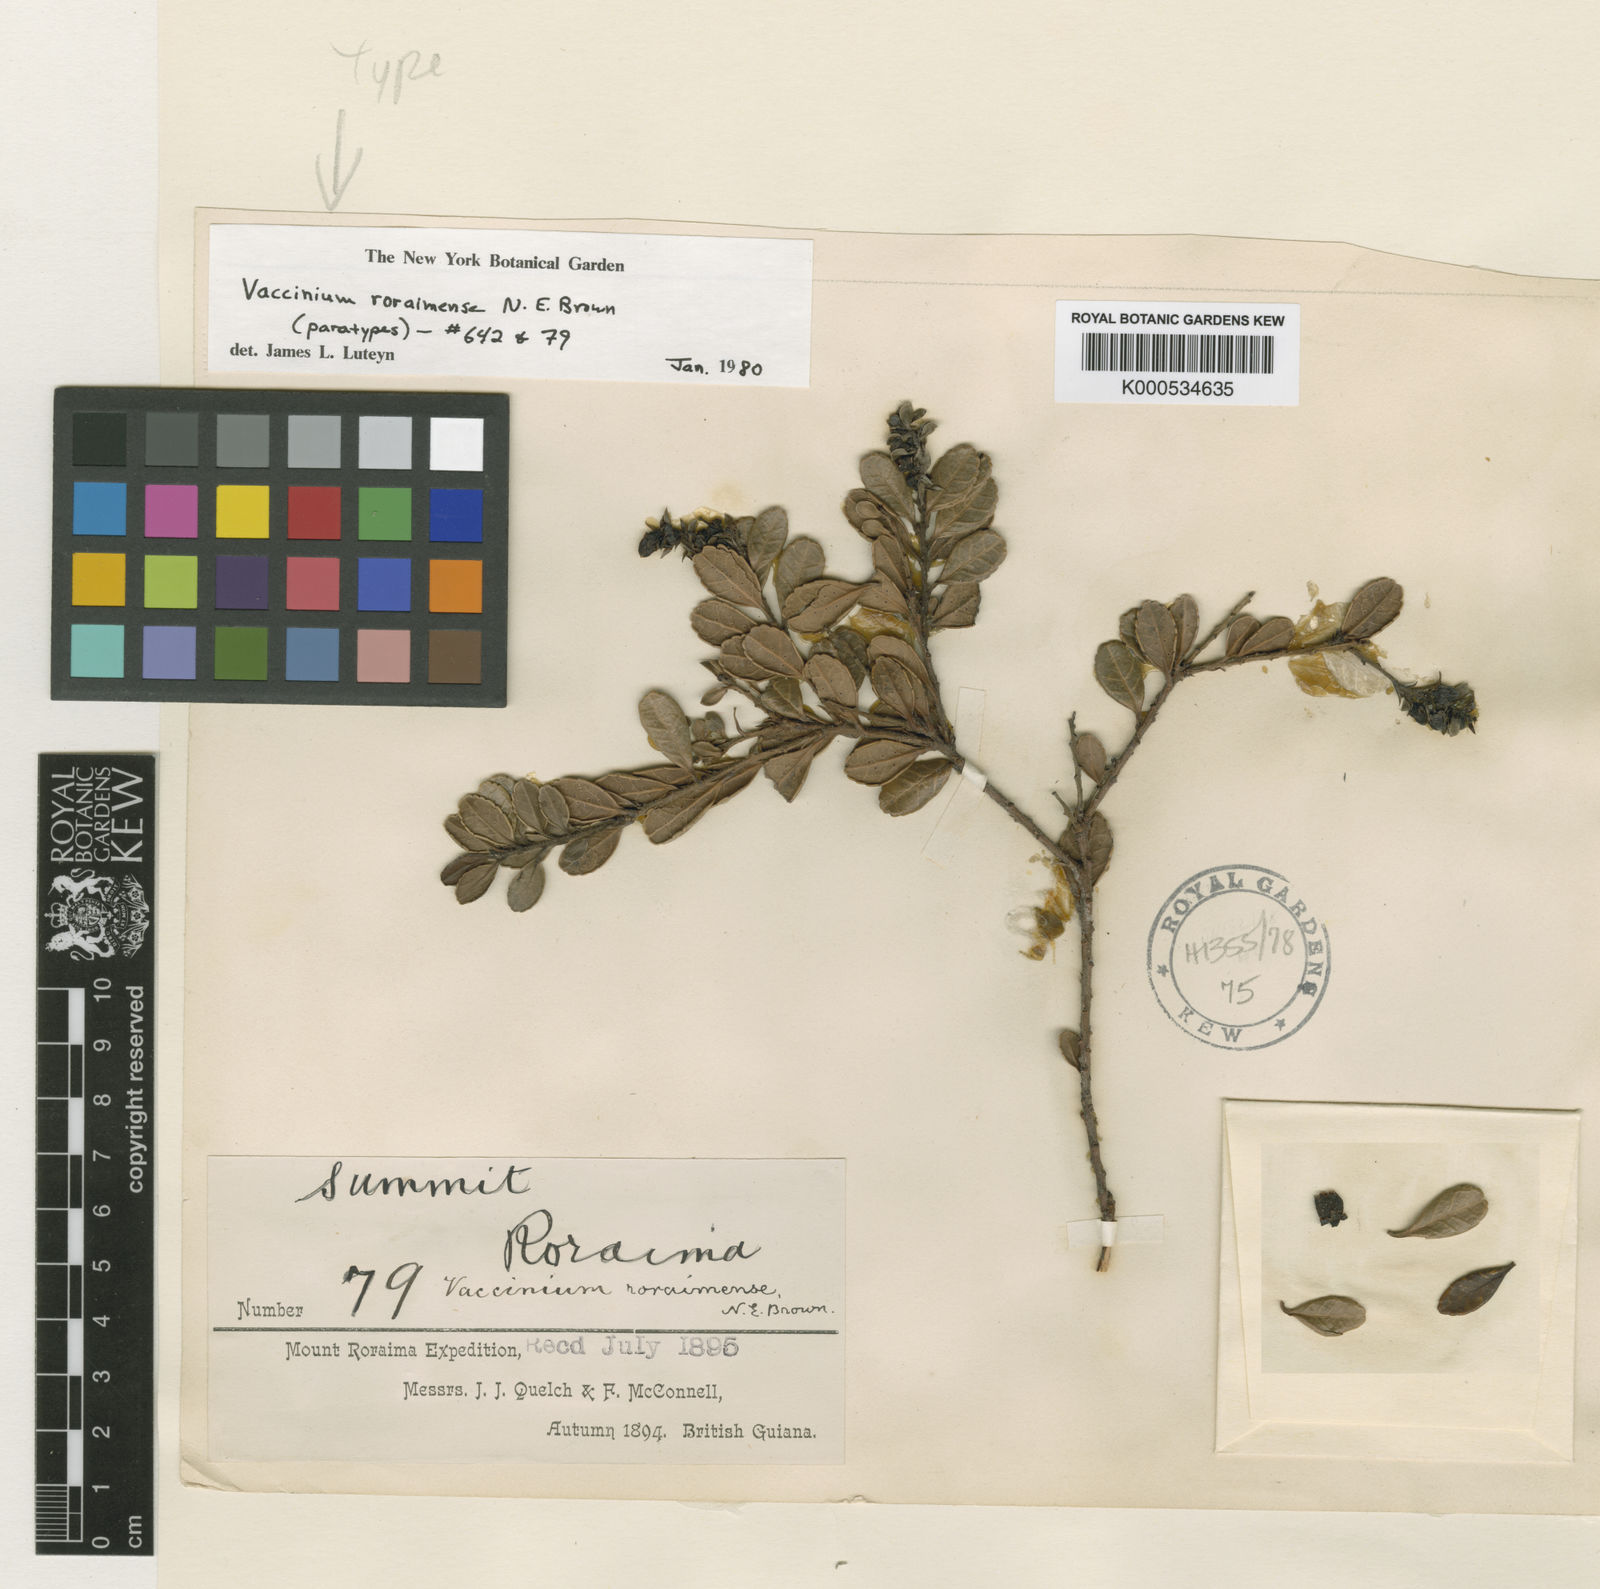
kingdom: Plantae
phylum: Tracheophyta
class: Magnoliopsida
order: Ericales
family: Ericaceae
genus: Vaccinium
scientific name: Vaccinium roraimense
